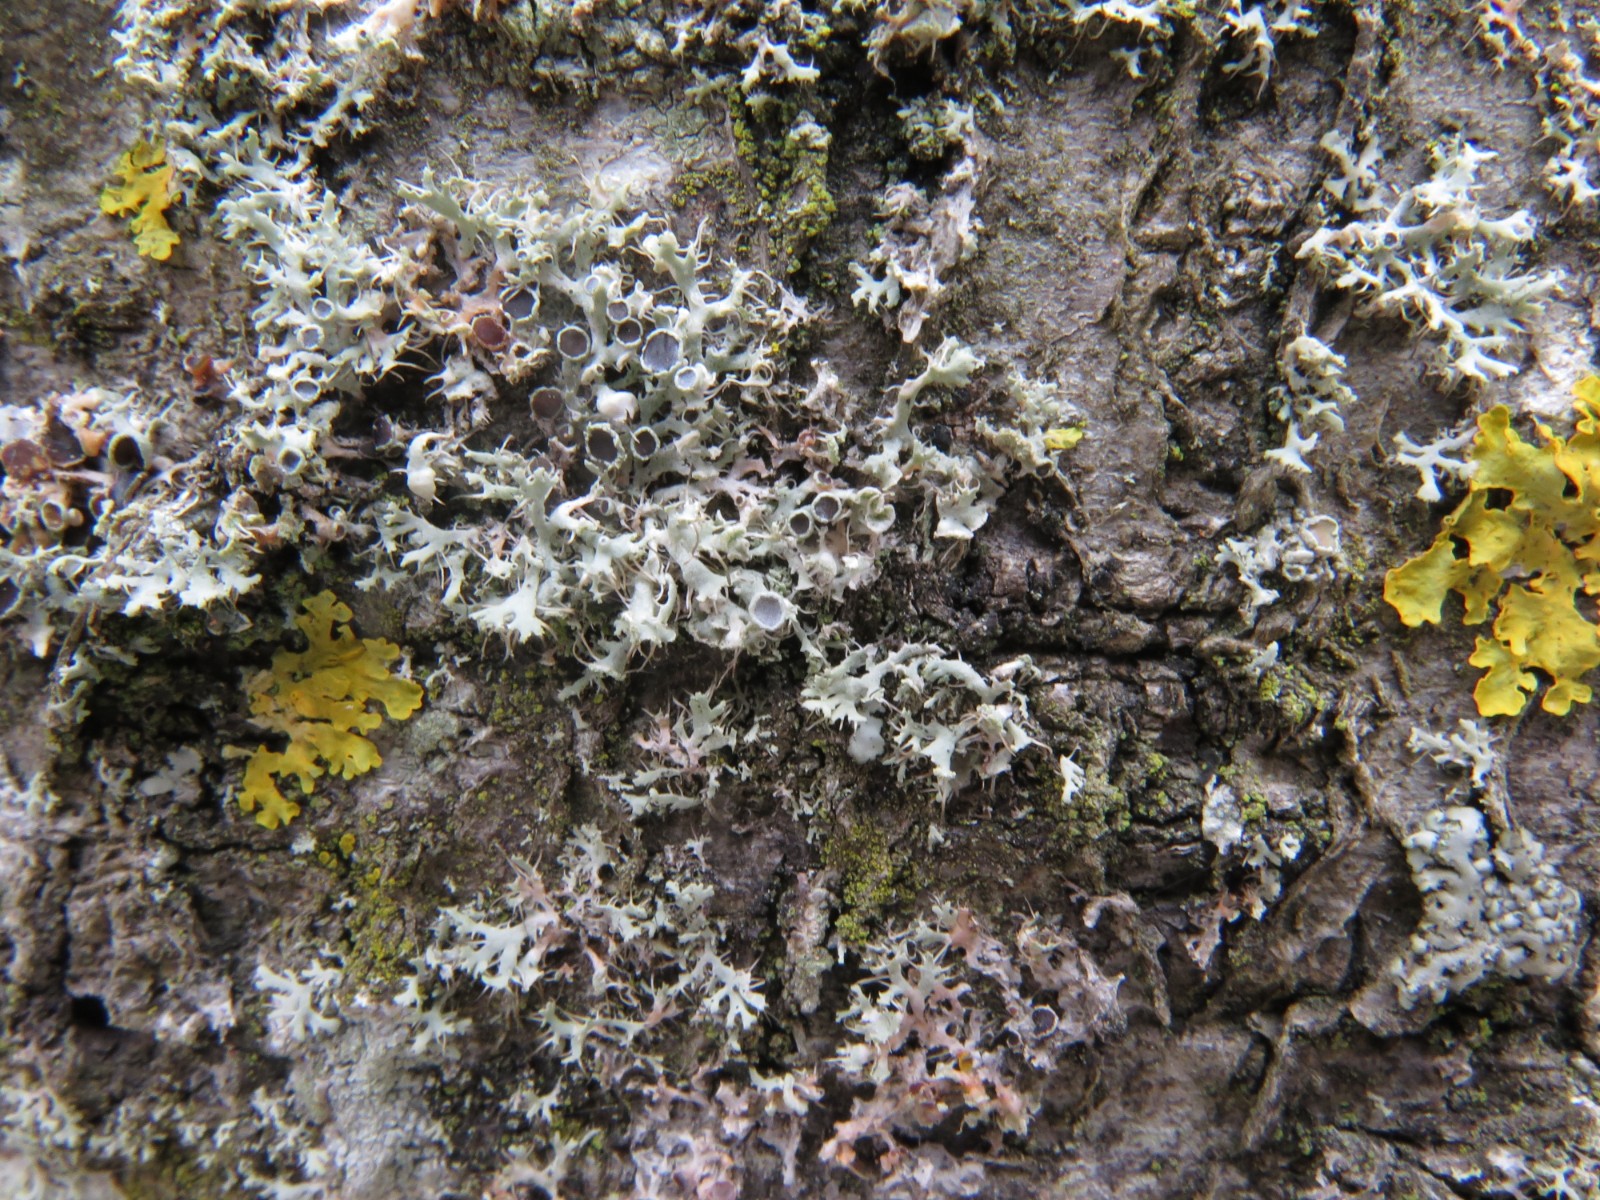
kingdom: Fungi
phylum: Basidiomycota
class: Agaricomycetes
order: Corticiales
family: Corticiaceae
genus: Erythricium
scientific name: Erythricium aurantiacum
